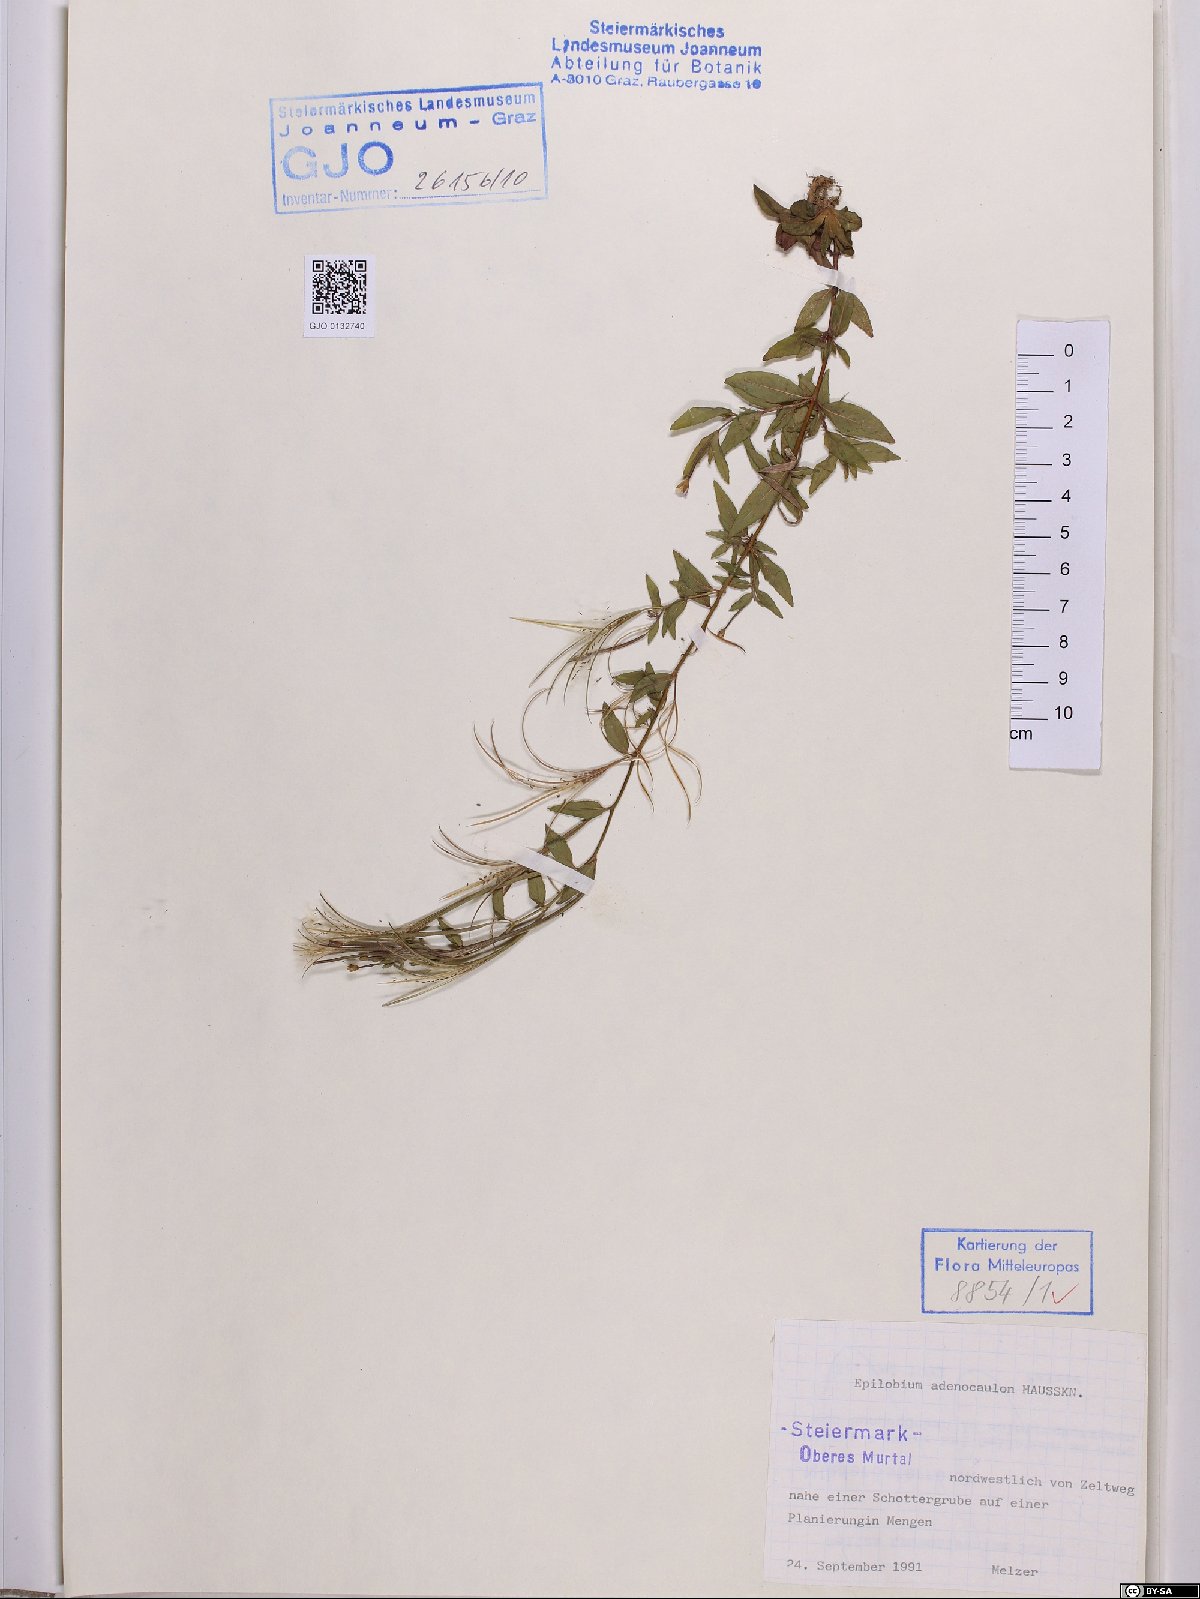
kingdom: Plantae
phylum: Tracheophyta
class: Magnoliopsida
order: Myrtales
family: Onagraceae
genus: Epilobium
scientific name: Epilobium ciliatum
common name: American willowherb
